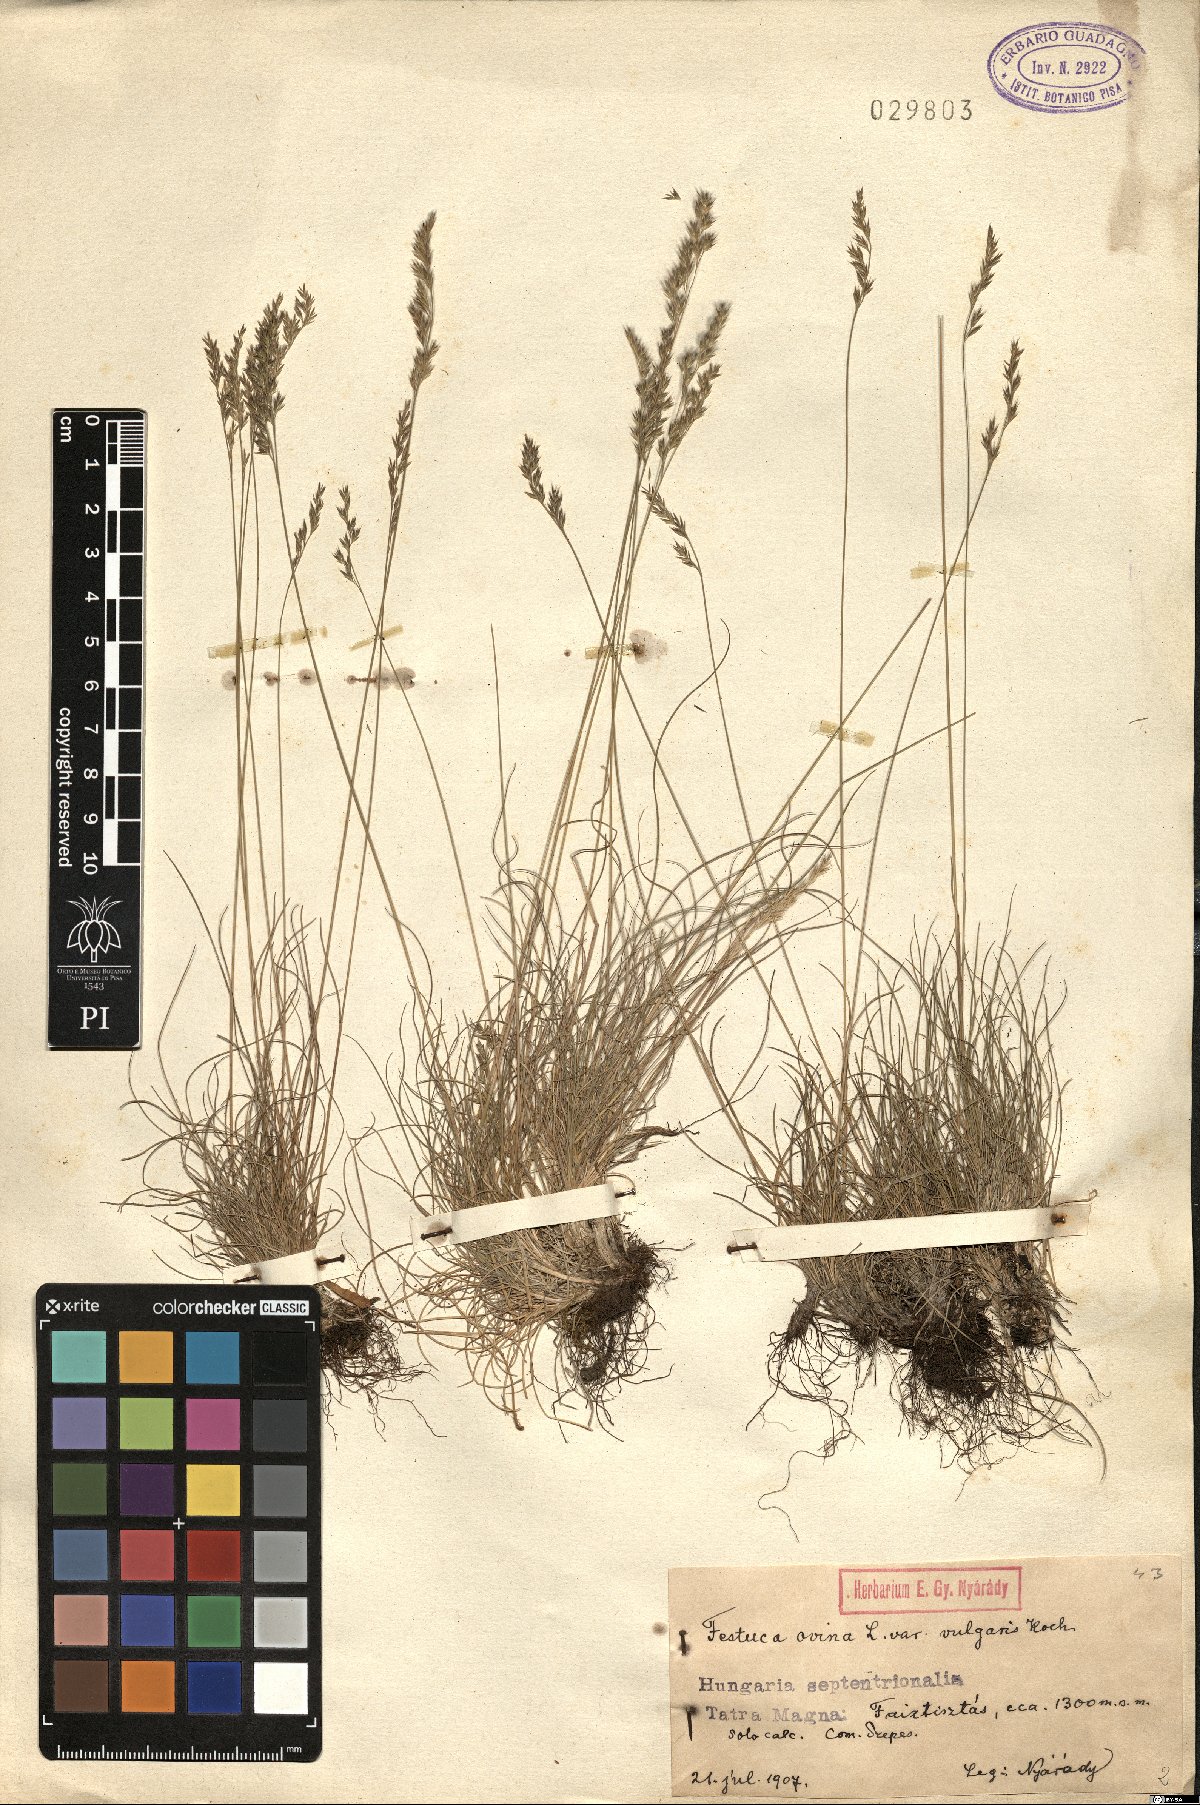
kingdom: Plantae
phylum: Tracheophyta
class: Liliopsida
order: Poales
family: Poaceae
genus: Festuca
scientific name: Festuca ovina
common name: Sheep fescue
